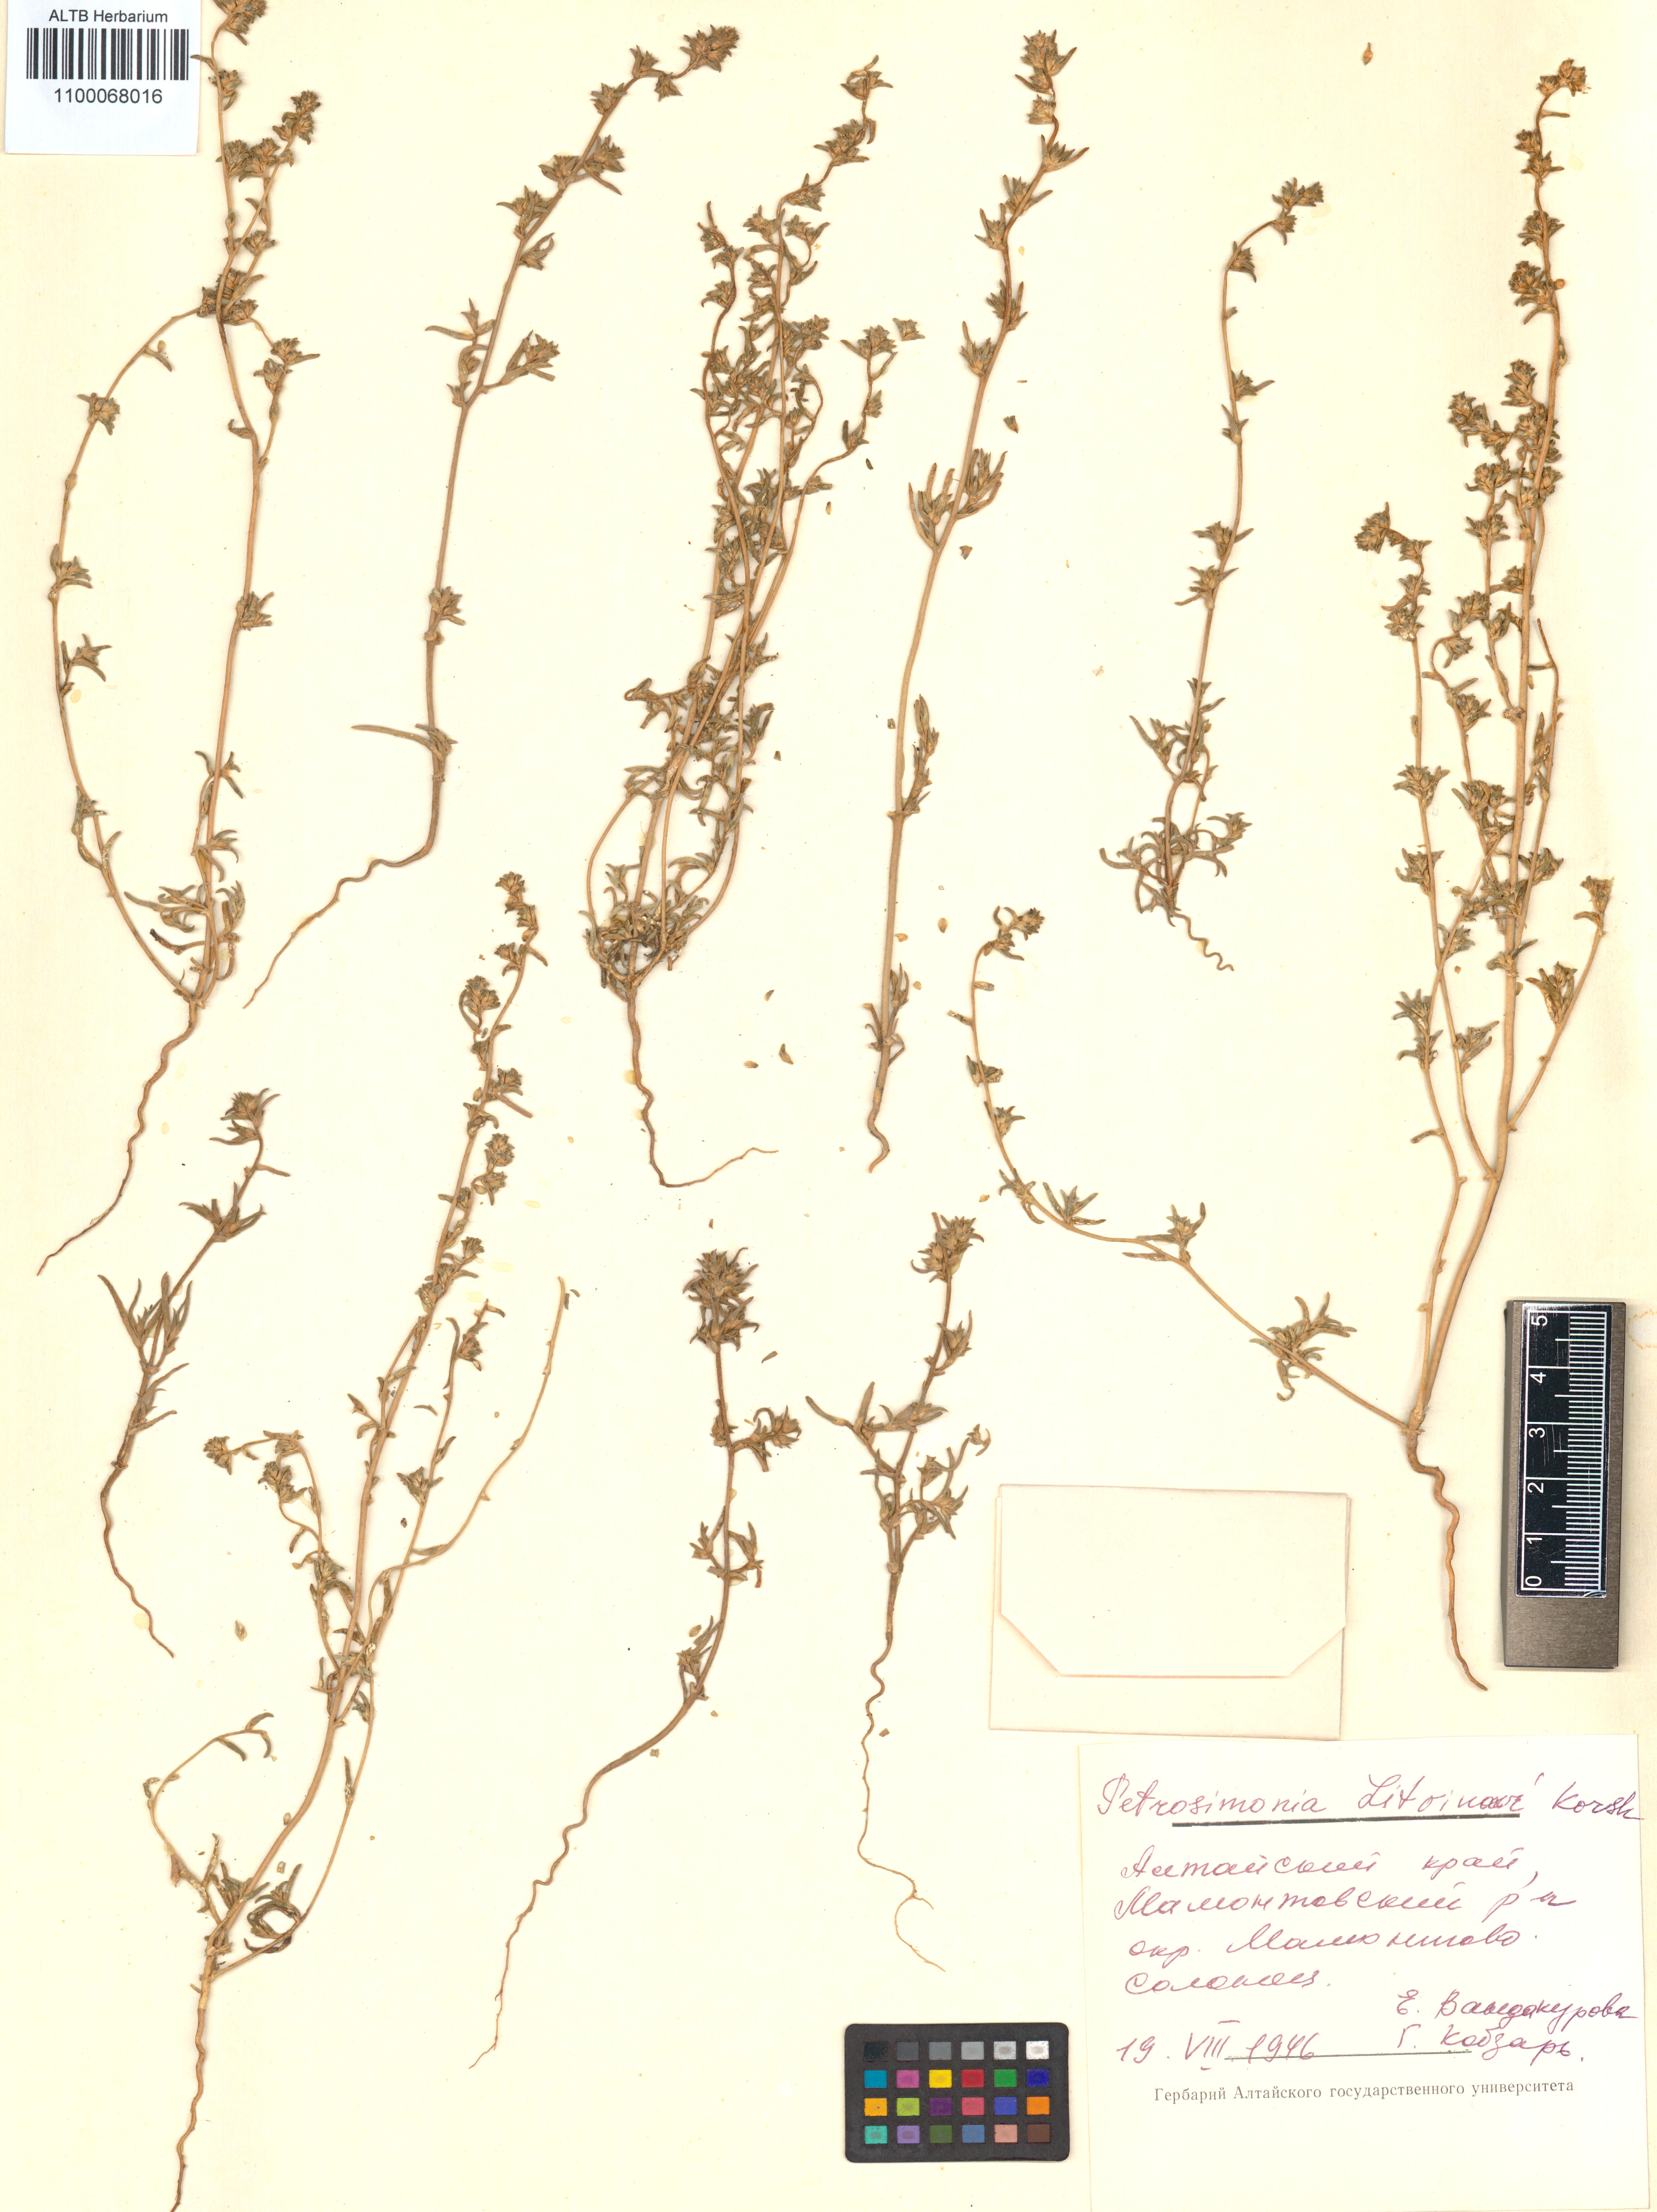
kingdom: Plantae
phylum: Tracheophyta
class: Magnoliopsida
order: Caryophyllales
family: Amaranthaceae
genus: Petrosimonia
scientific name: Petrosimonia litvinowi
